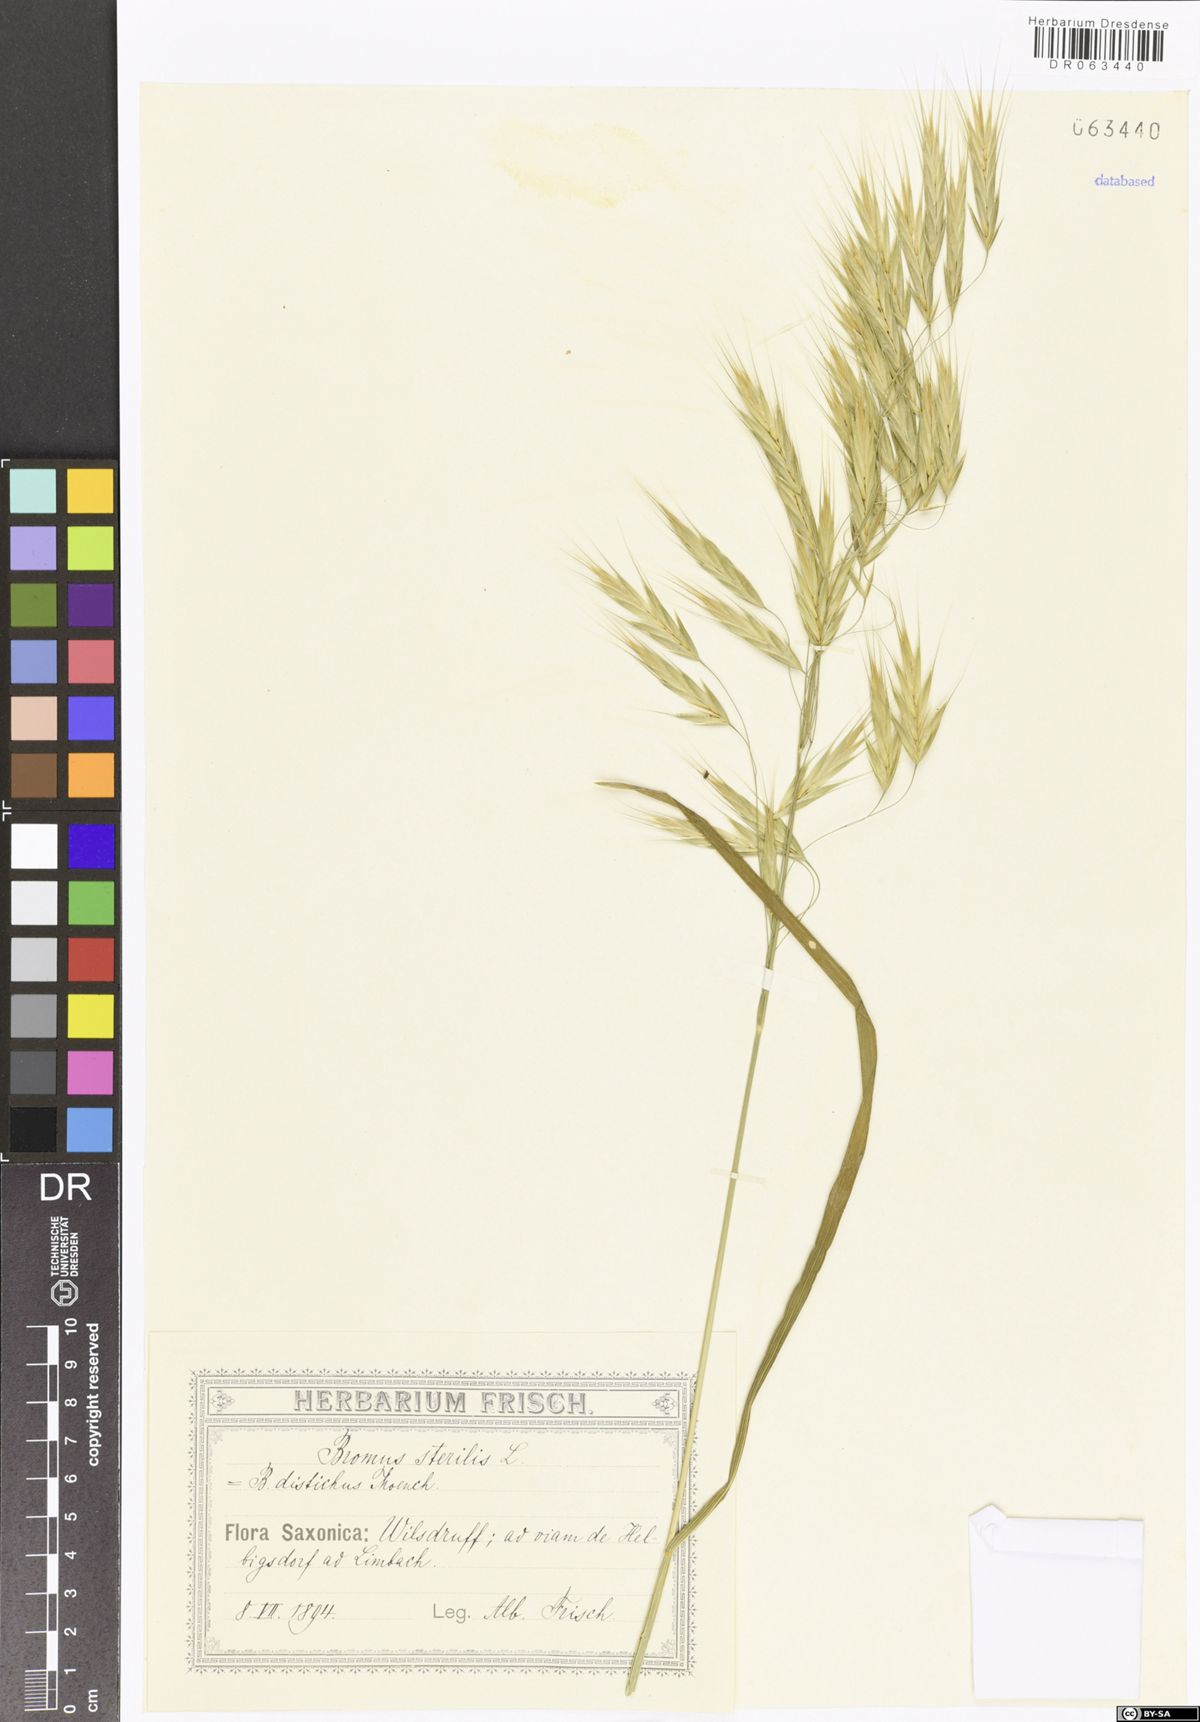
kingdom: Plantae
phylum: Tracheophyta
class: Liliopsida
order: Poales
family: Poaceae
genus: Bromus
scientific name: Bromus sterilis
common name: Poverty brome
